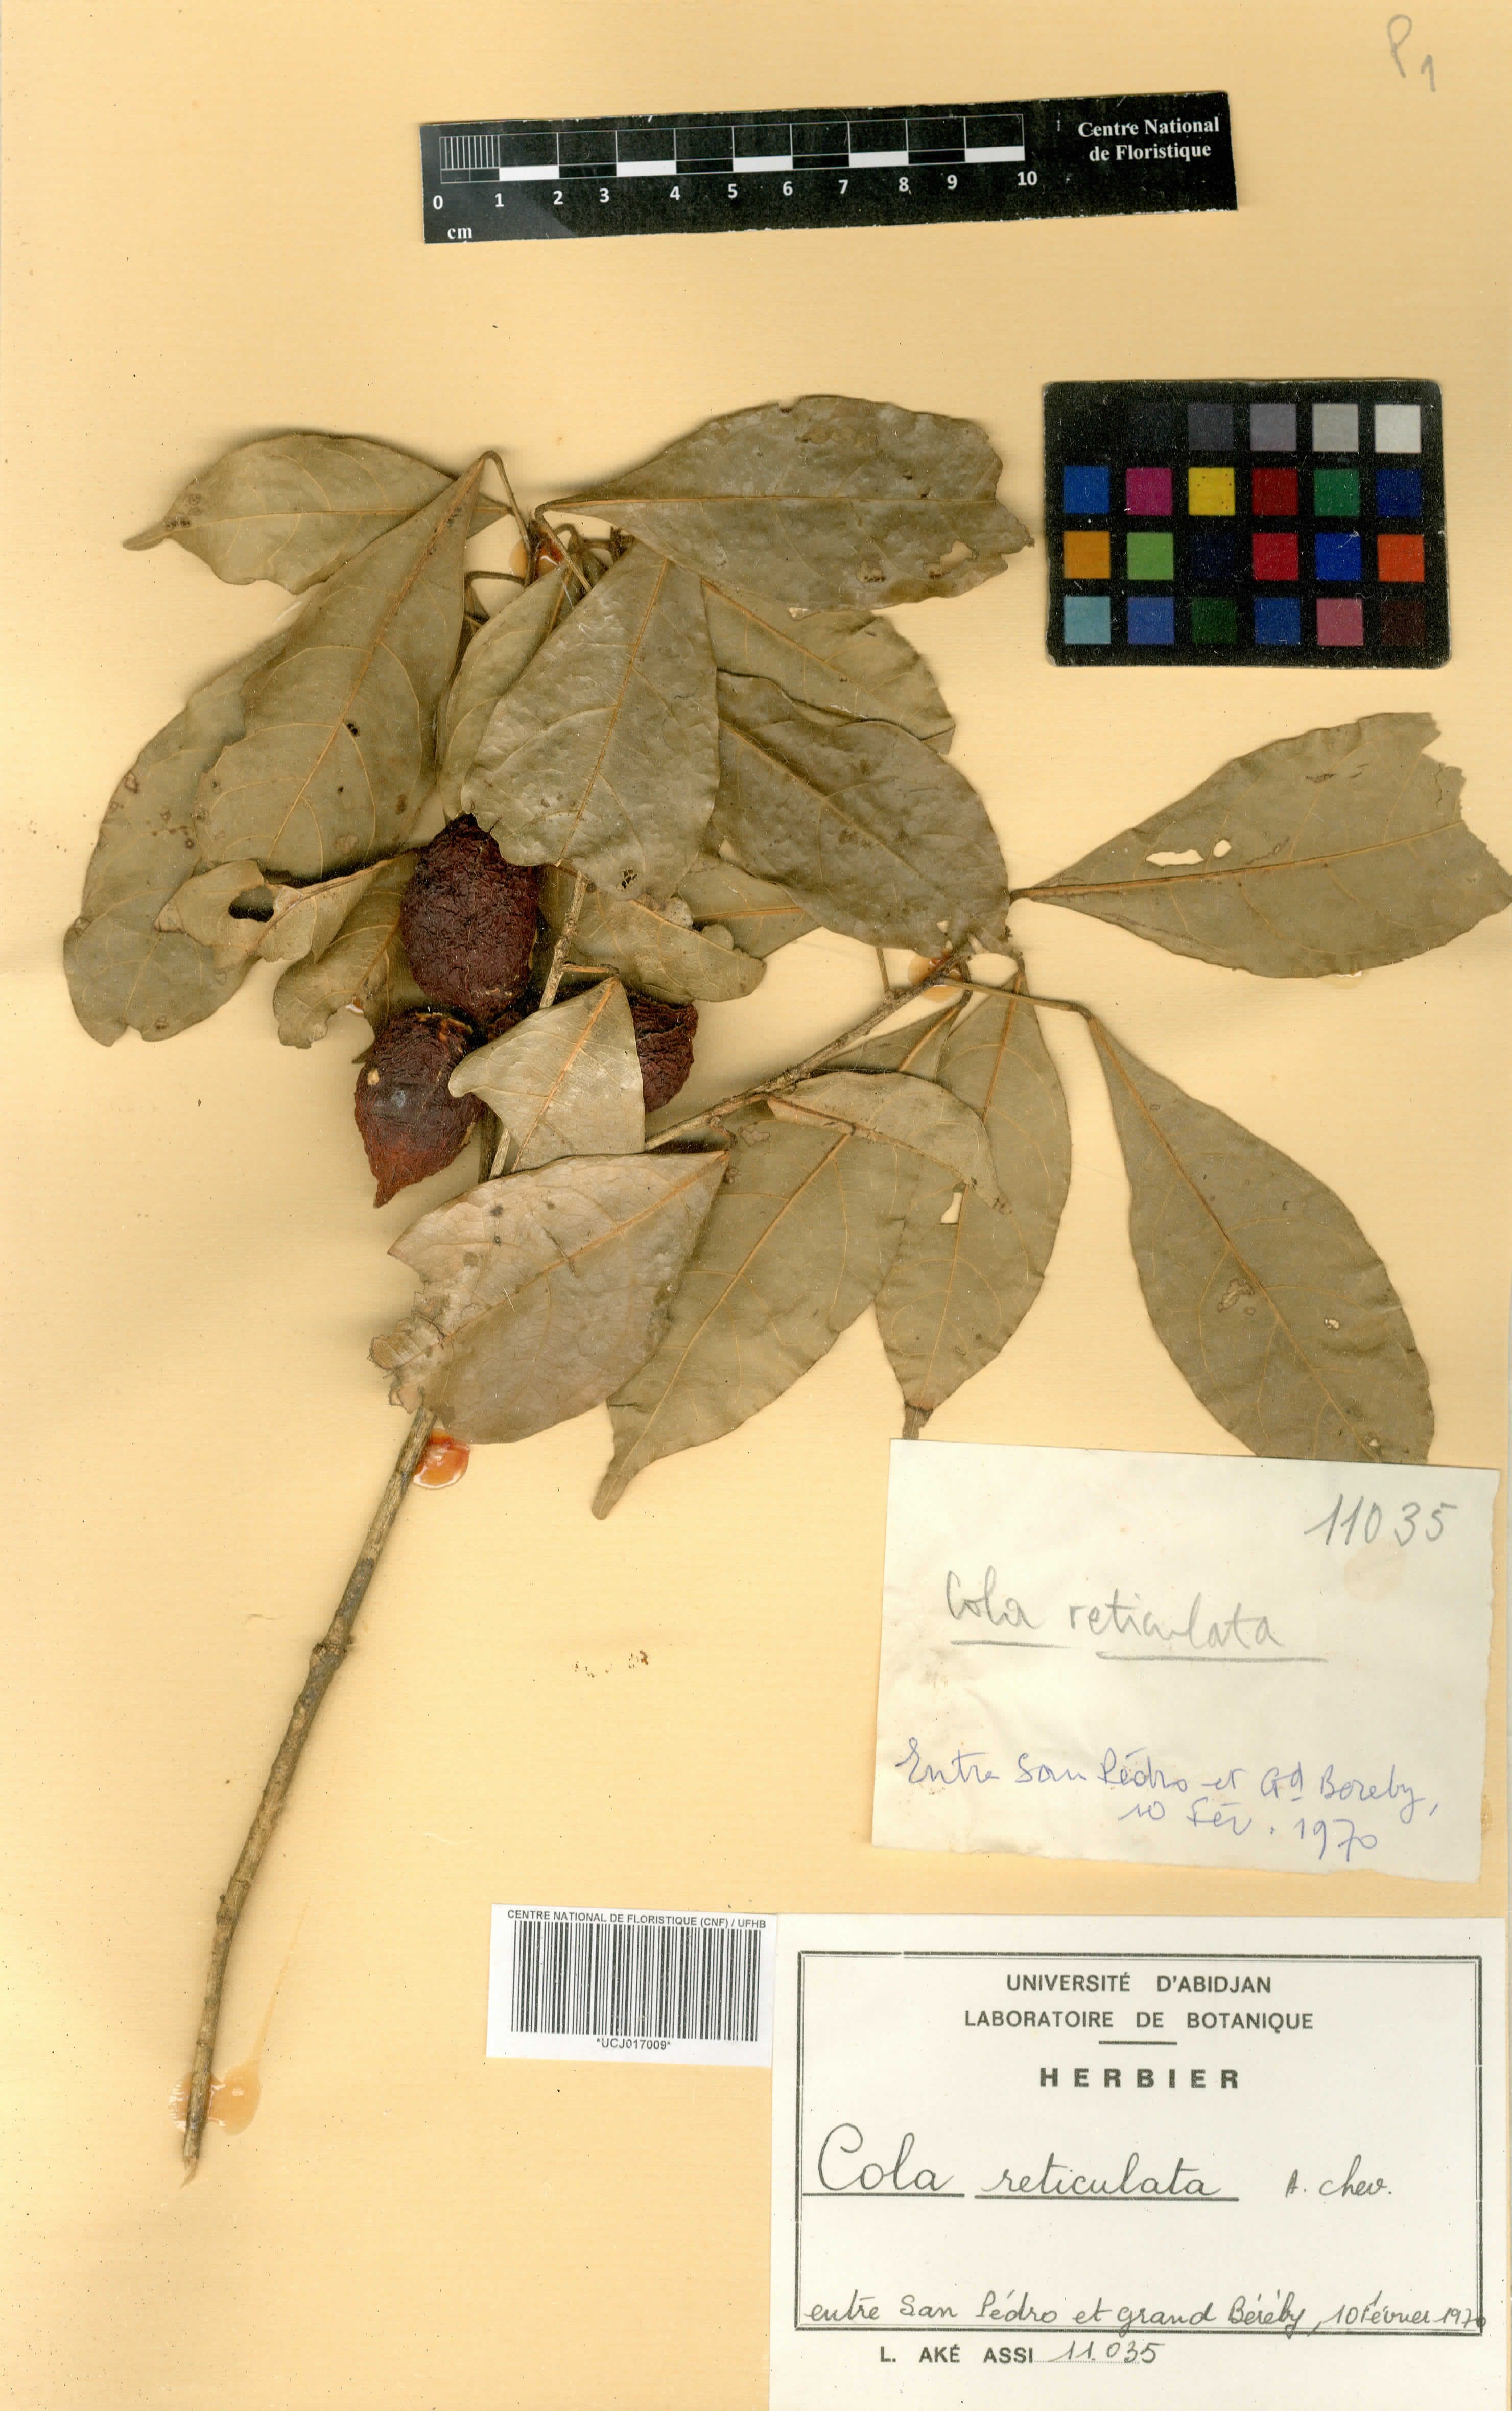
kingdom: Plantae
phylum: Tracheophyta
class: Magnoliopsida
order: Malvales
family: Malvaceae
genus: Cola
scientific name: Cola reticulata
